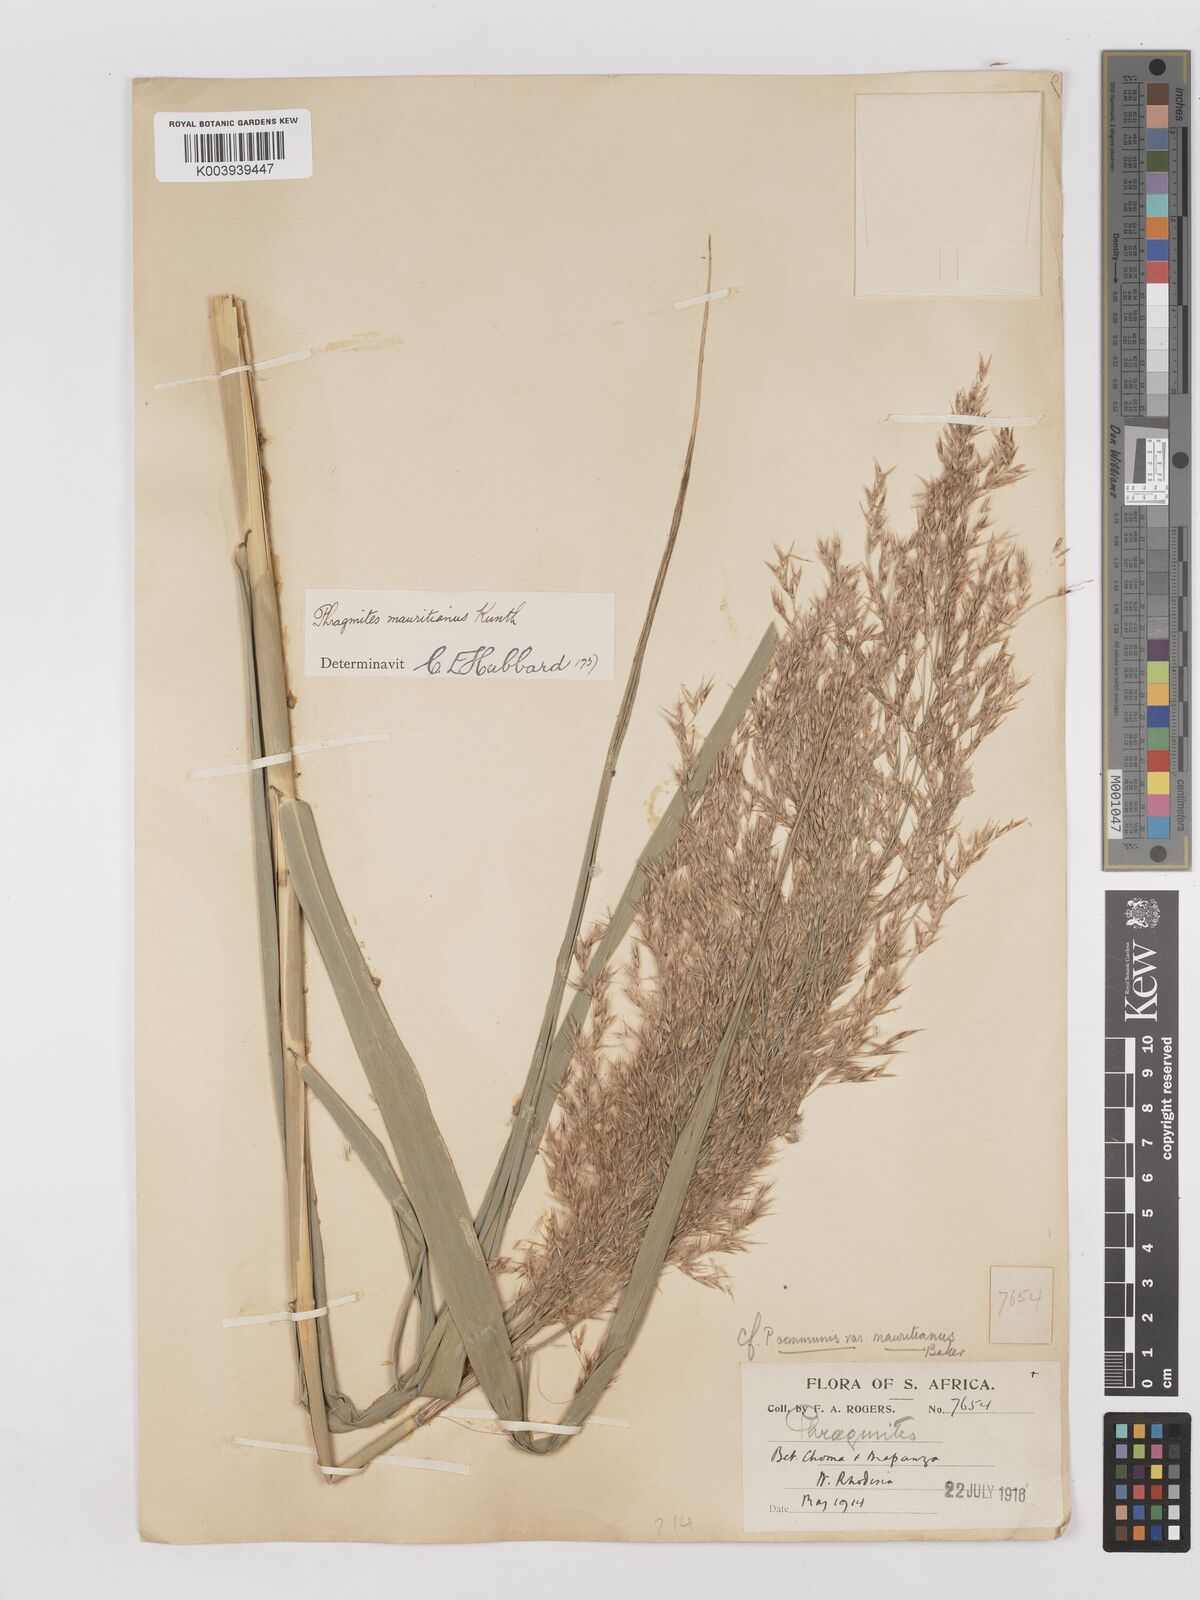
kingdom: Plantae
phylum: Tracheophyta
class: Liliopsida
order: Poales
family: Poaceae
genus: Phragmites
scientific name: Phragmites mauritianus
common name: Reed grass
